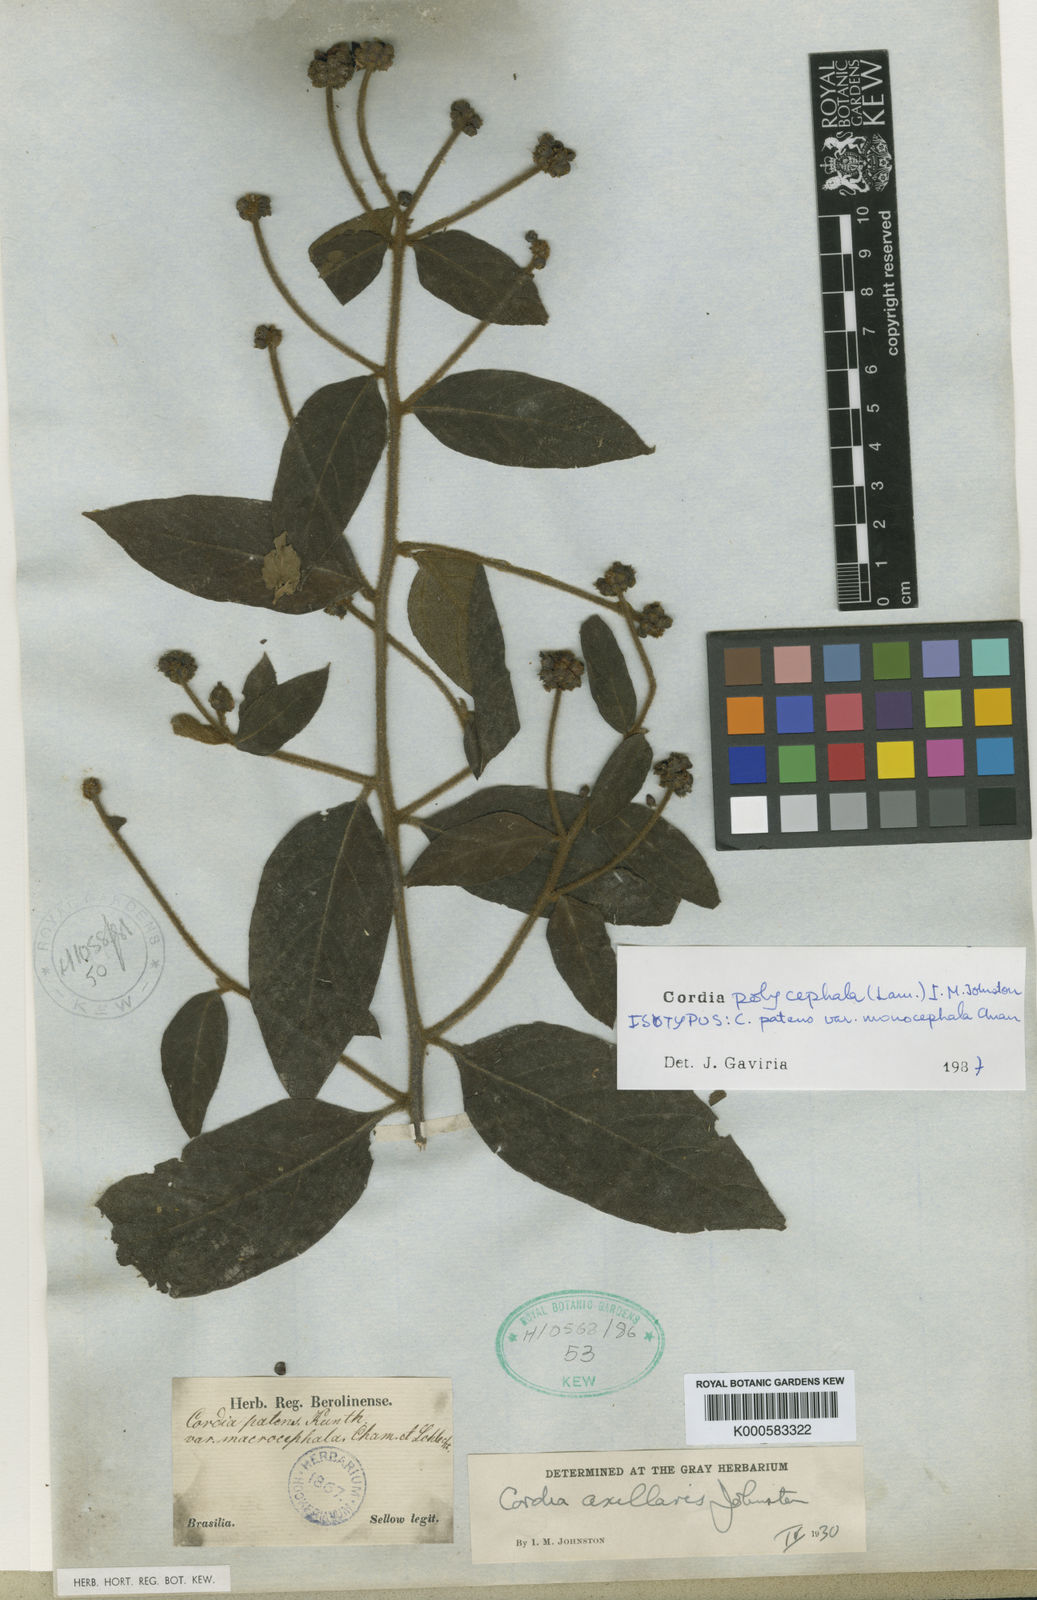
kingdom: Plantae
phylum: Tracheophyta
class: Magnoliopsida
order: Boraginales
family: Cordiaceae
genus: Varronia
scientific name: Varronia discolor
